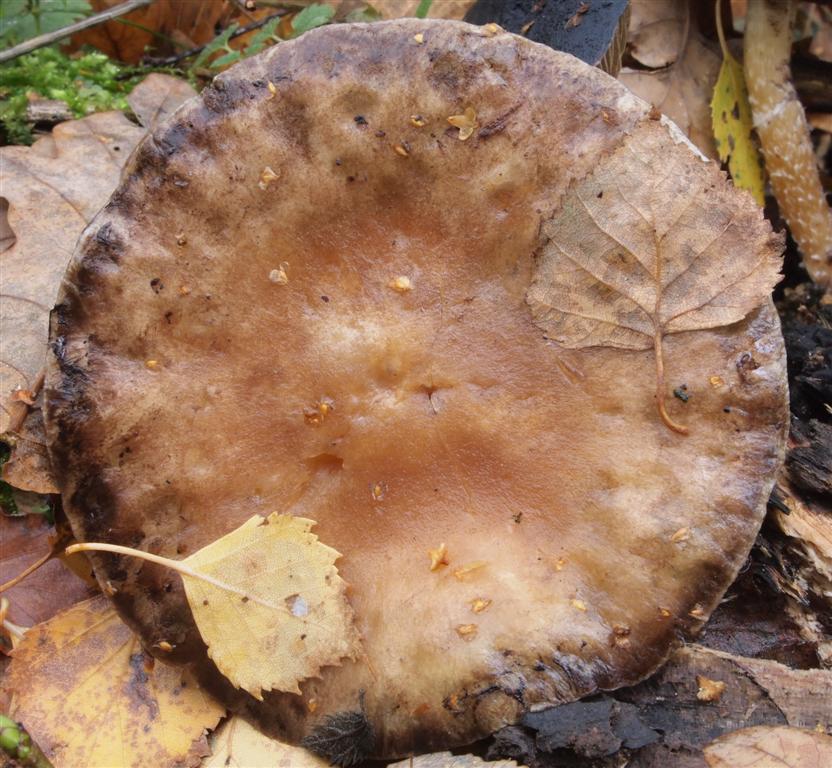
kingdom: Fungi
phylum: Basidiomycota
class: Agaricomycetes
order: Agaricales
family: Strophariaceae
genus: Stropharia
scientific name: Stropharia hornemannii
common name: nordisk bredblad
